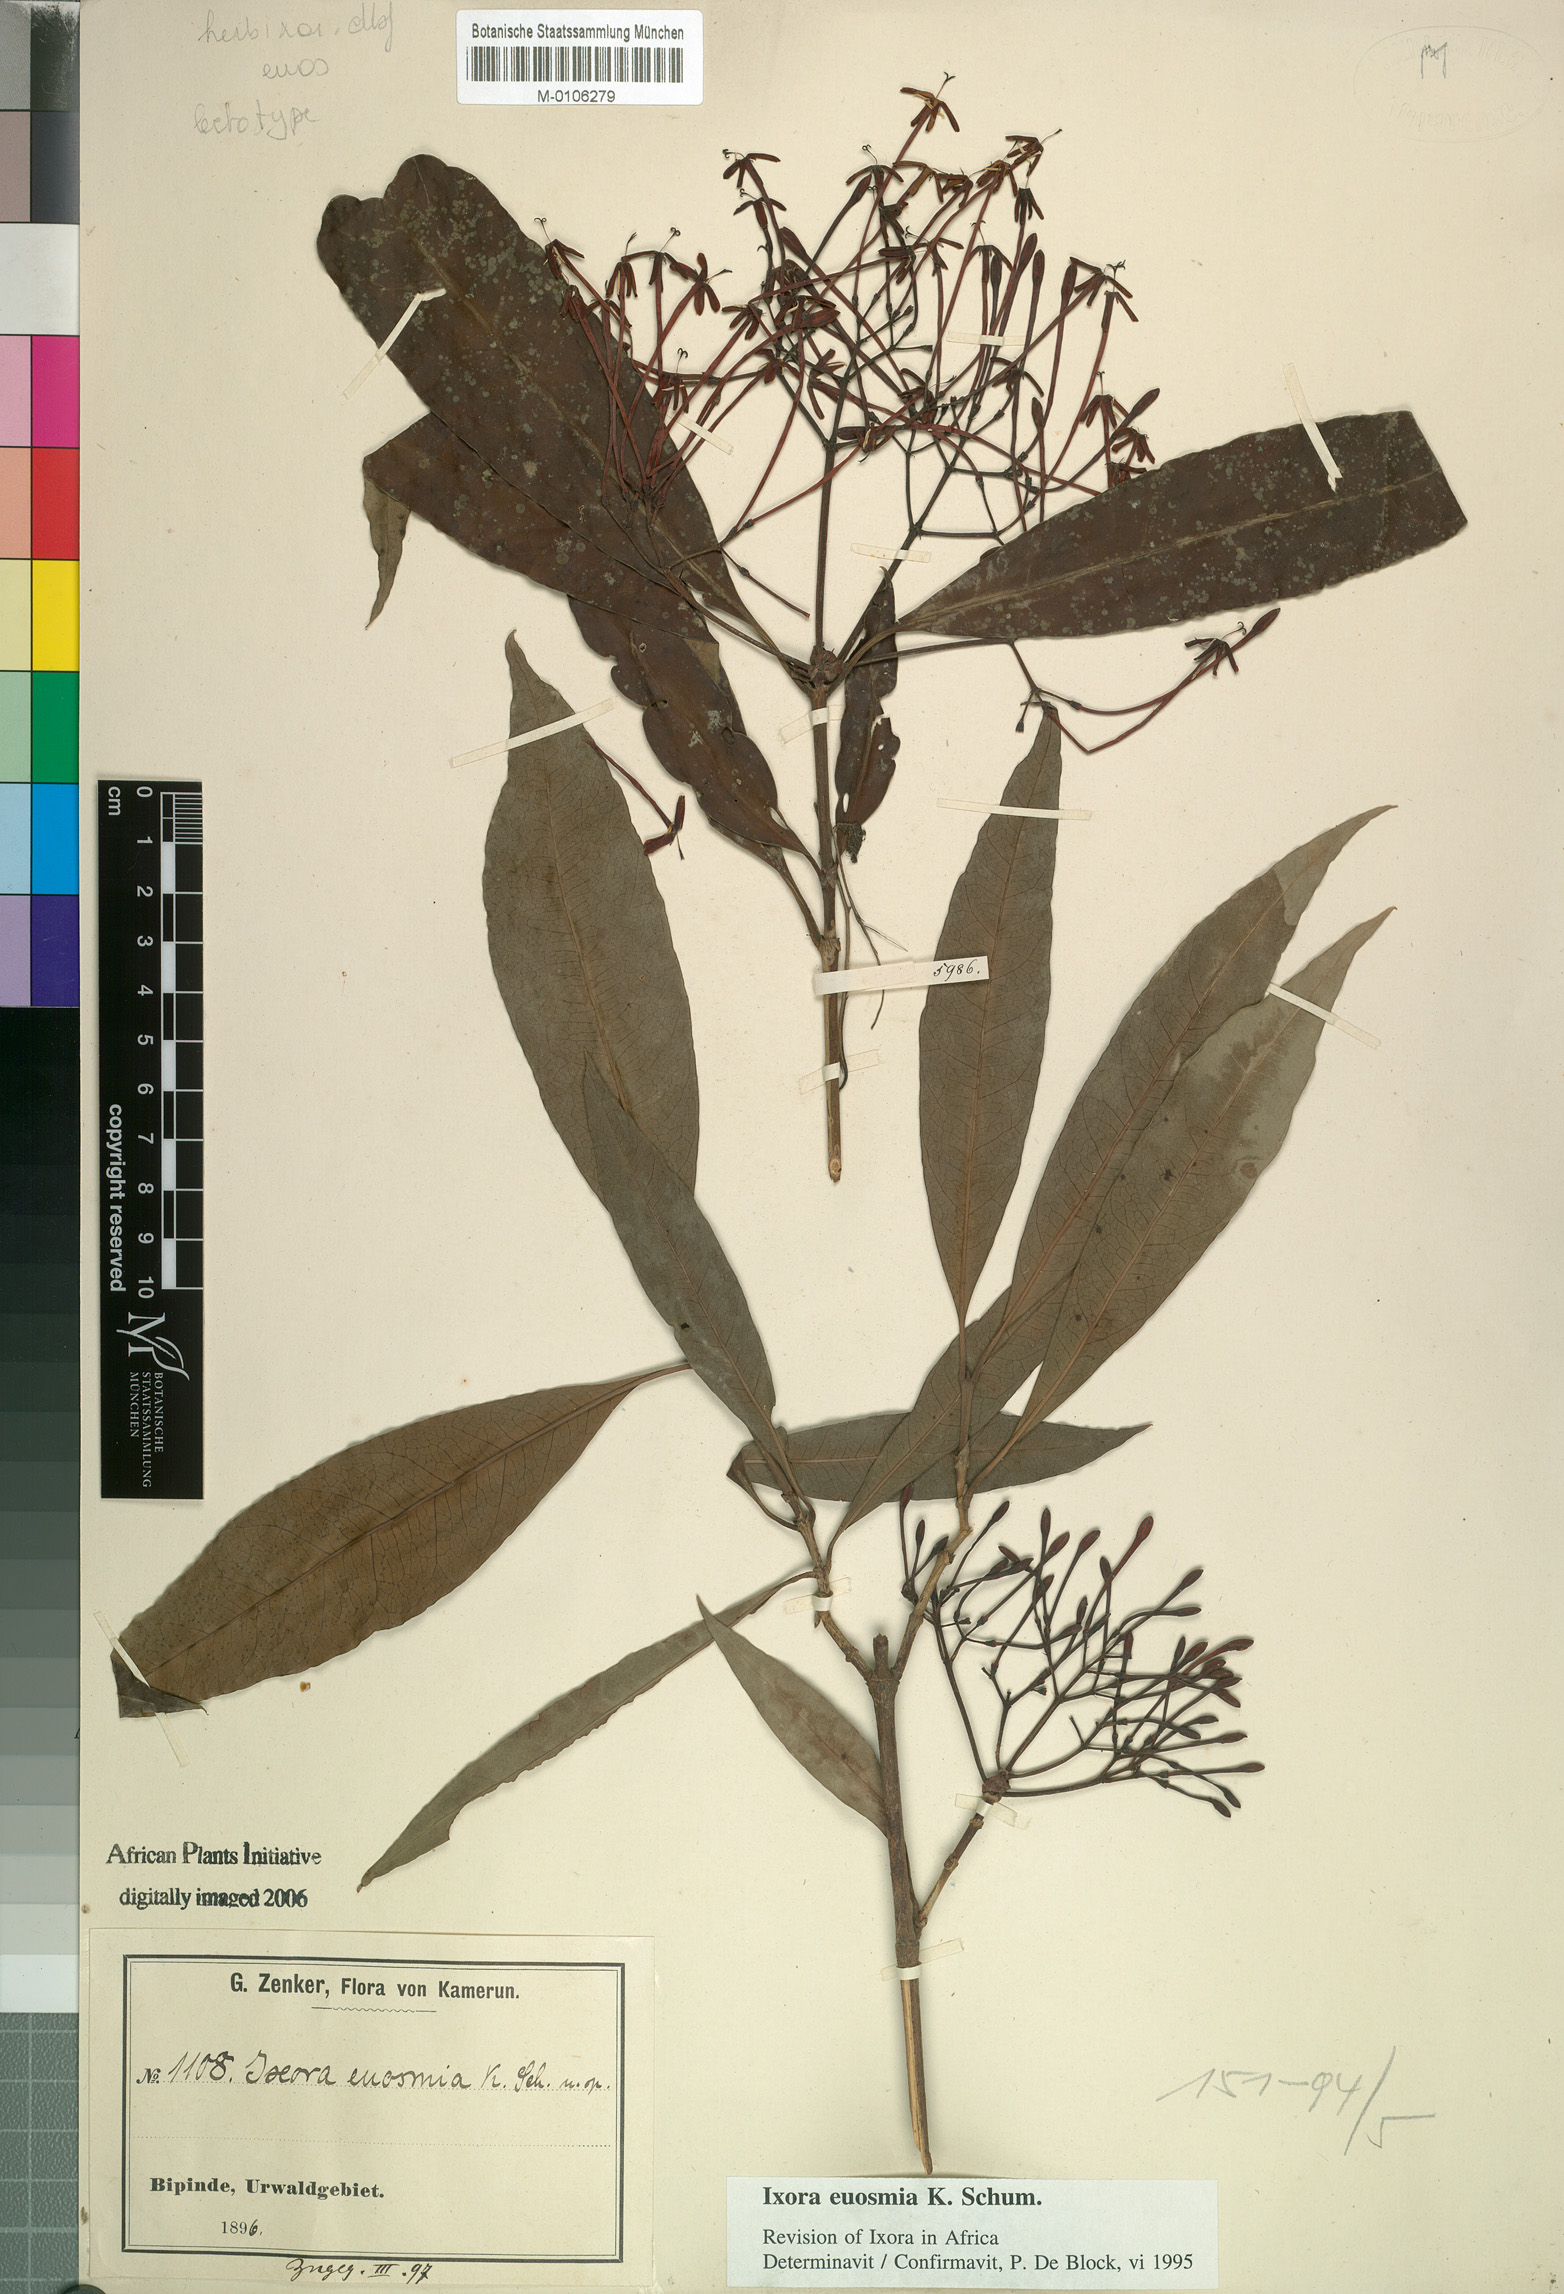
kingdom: Plantae
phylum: Tracheophyta
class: Magnoliopsida
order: Gentianales
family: Rubiaceae
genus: Ixora
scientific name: Ixora euosmia
